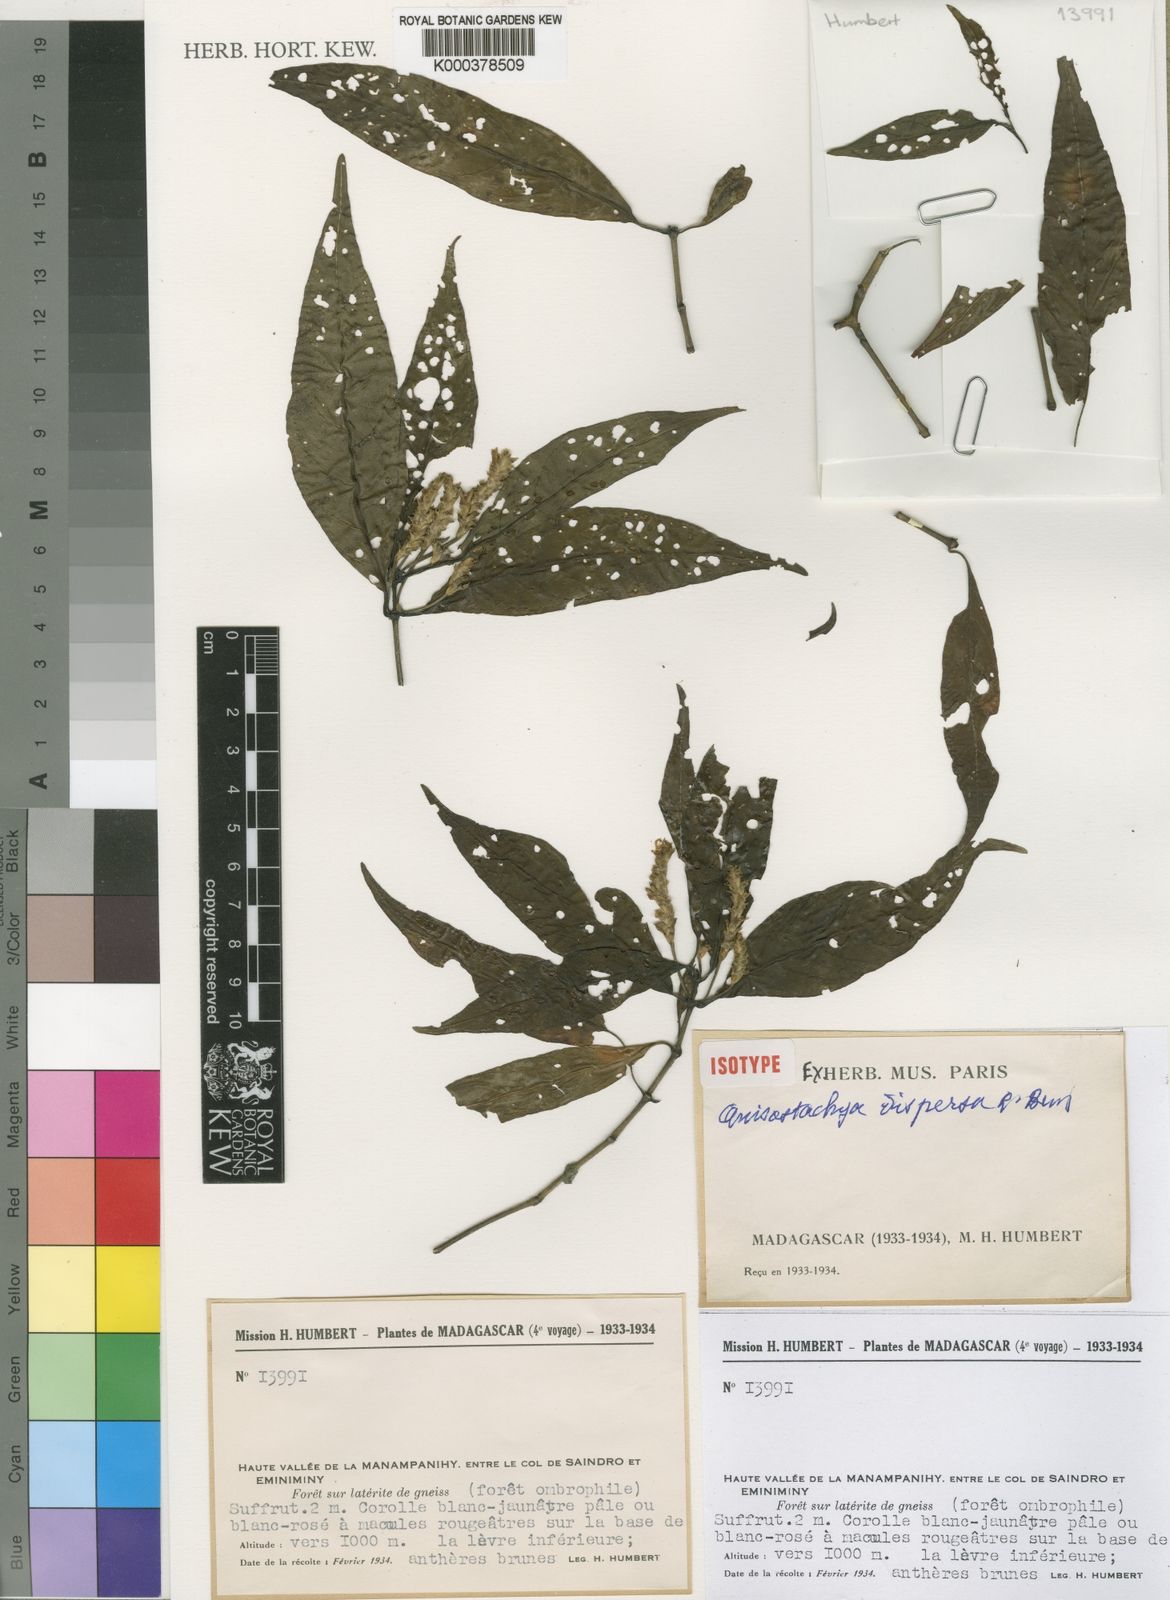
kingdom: Plantae
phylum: Tracheophyta
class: Magnoliopsida
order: Lamiales
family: Acanthaceae
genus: Justicia
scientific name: Justicia
